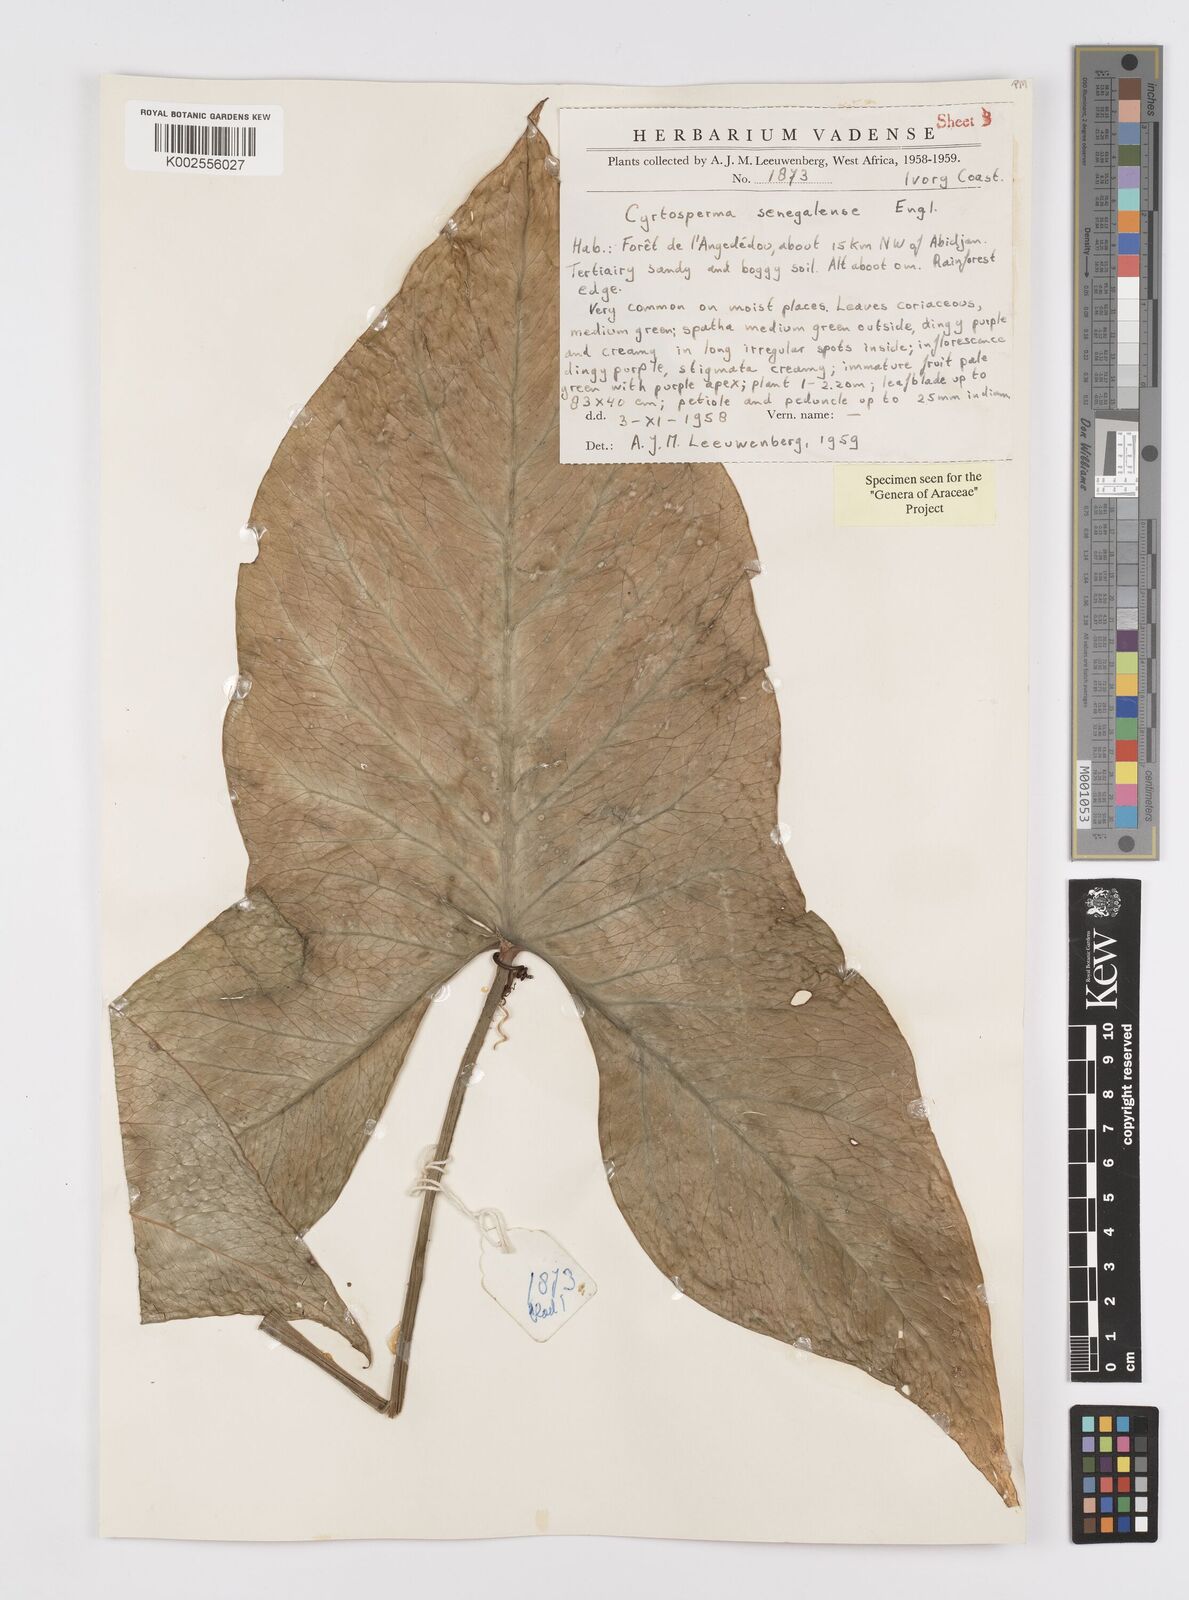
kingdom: Plantae
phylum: Tracheophyta
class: Liliopsida
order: Alismatales
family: Araceae
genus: Lasimorpha
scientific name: Lasimorpha senegalensis
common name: Swamp arum
